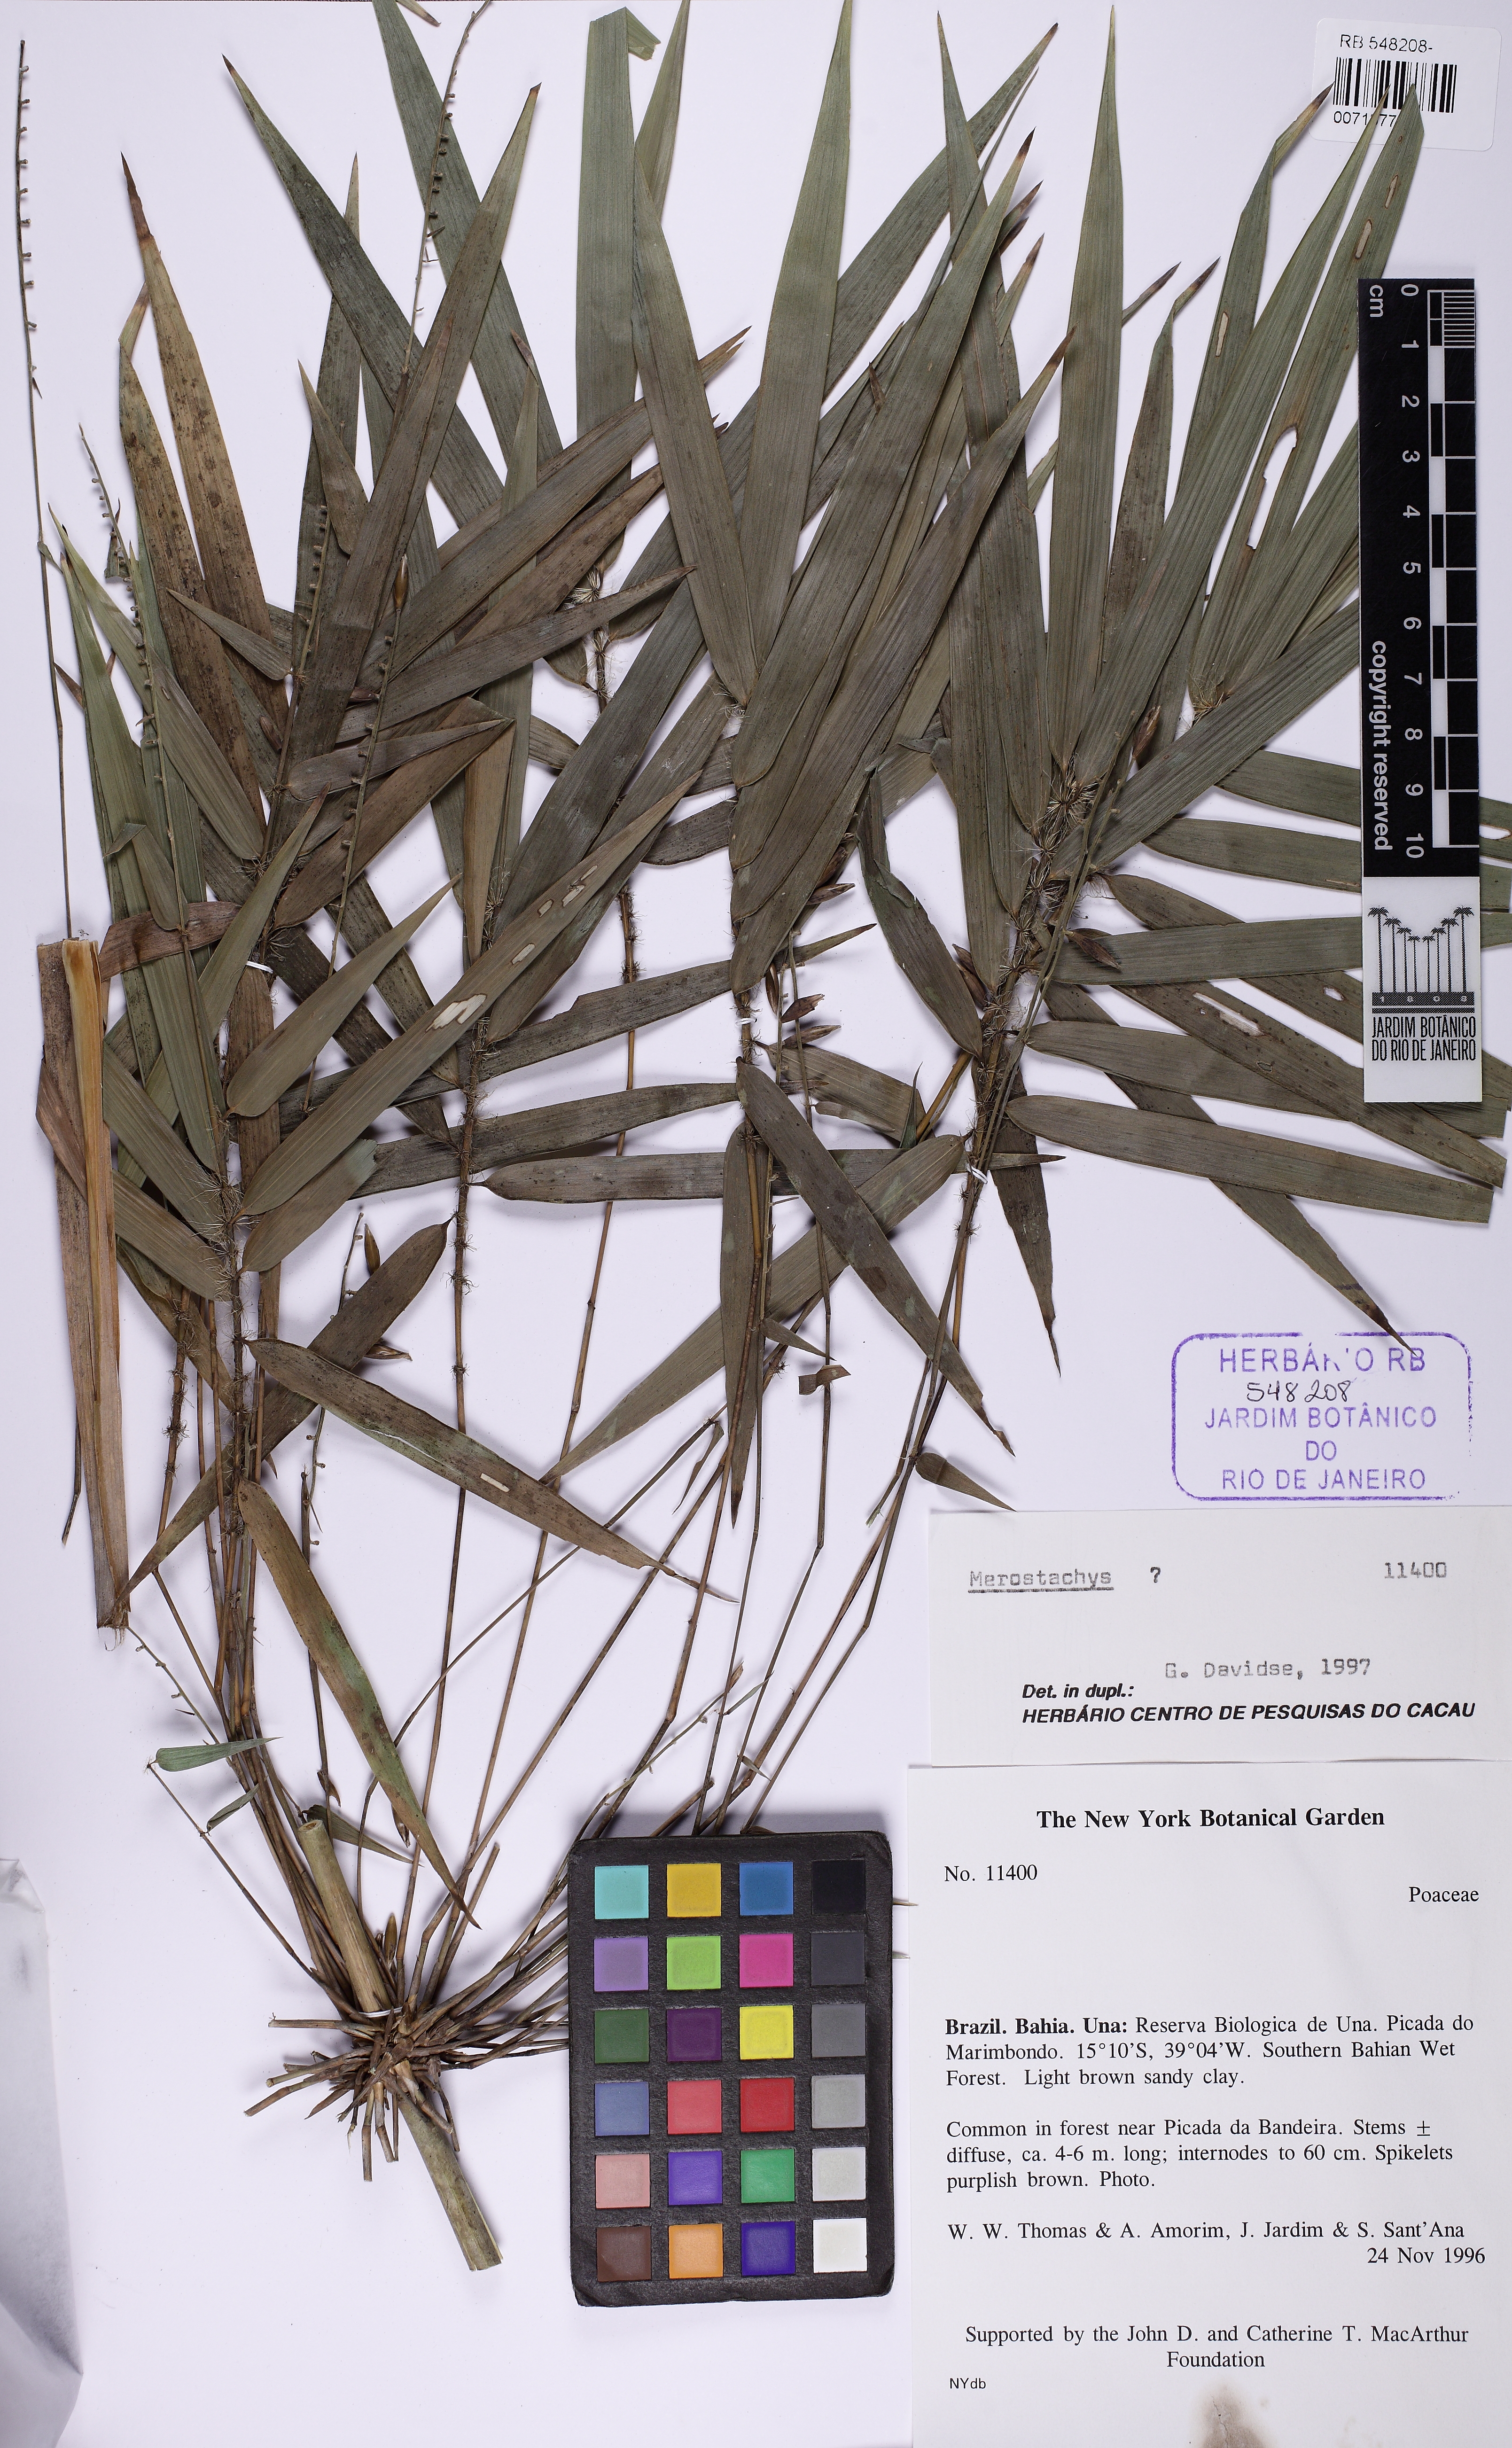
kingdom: Plantae
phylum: Tracheophyta
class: Liliopsida
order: Poales
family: Poaceae
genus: Merostachys
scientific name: Merostachys calderoniana
